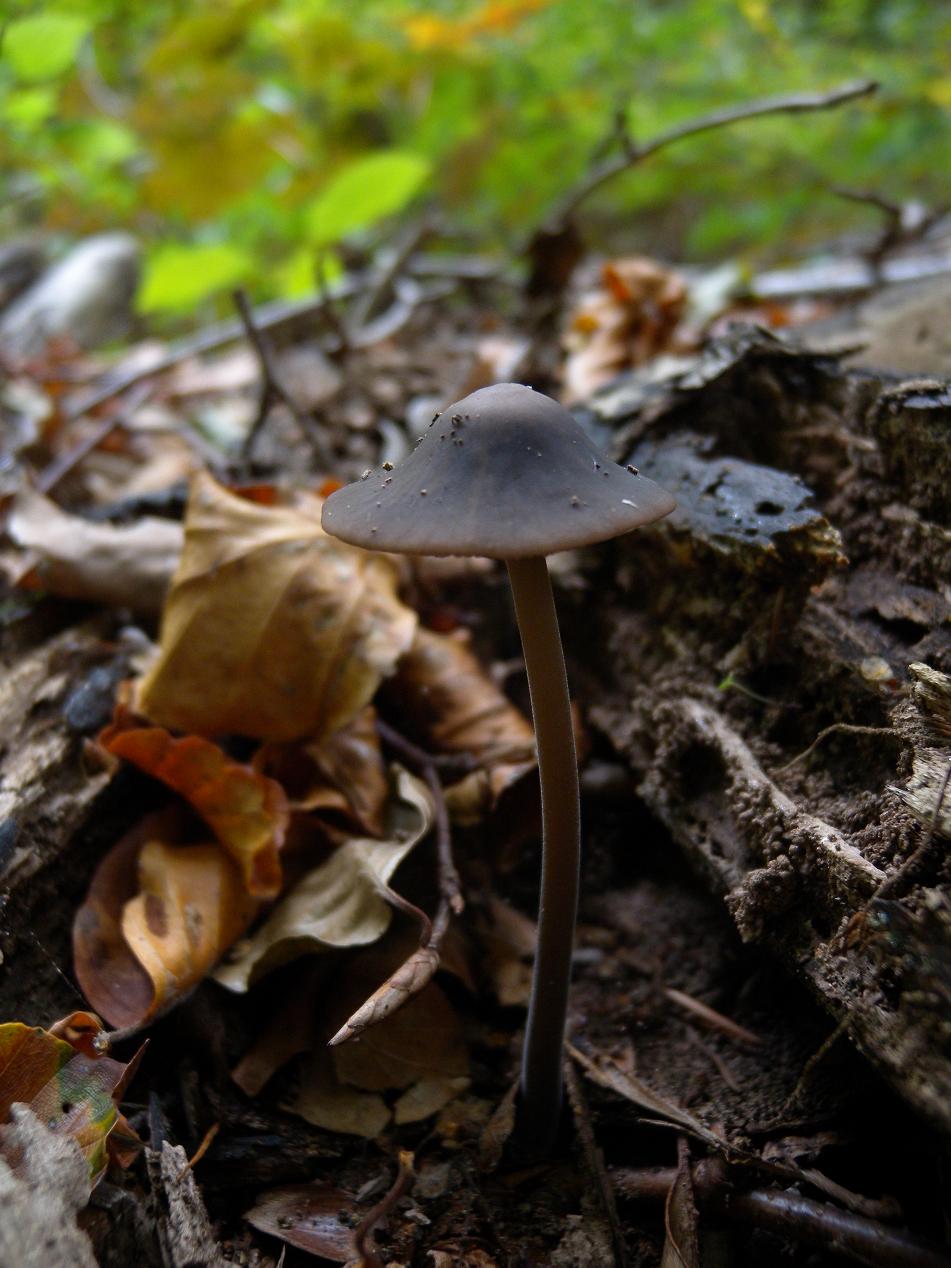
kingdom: Fungi
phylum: Basidiomycota
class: Agaricomycetes
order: Agaricales
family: Omphalotaceae
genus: Mycetinis
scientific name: Mycetinis alliaceus
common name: stor løghat
